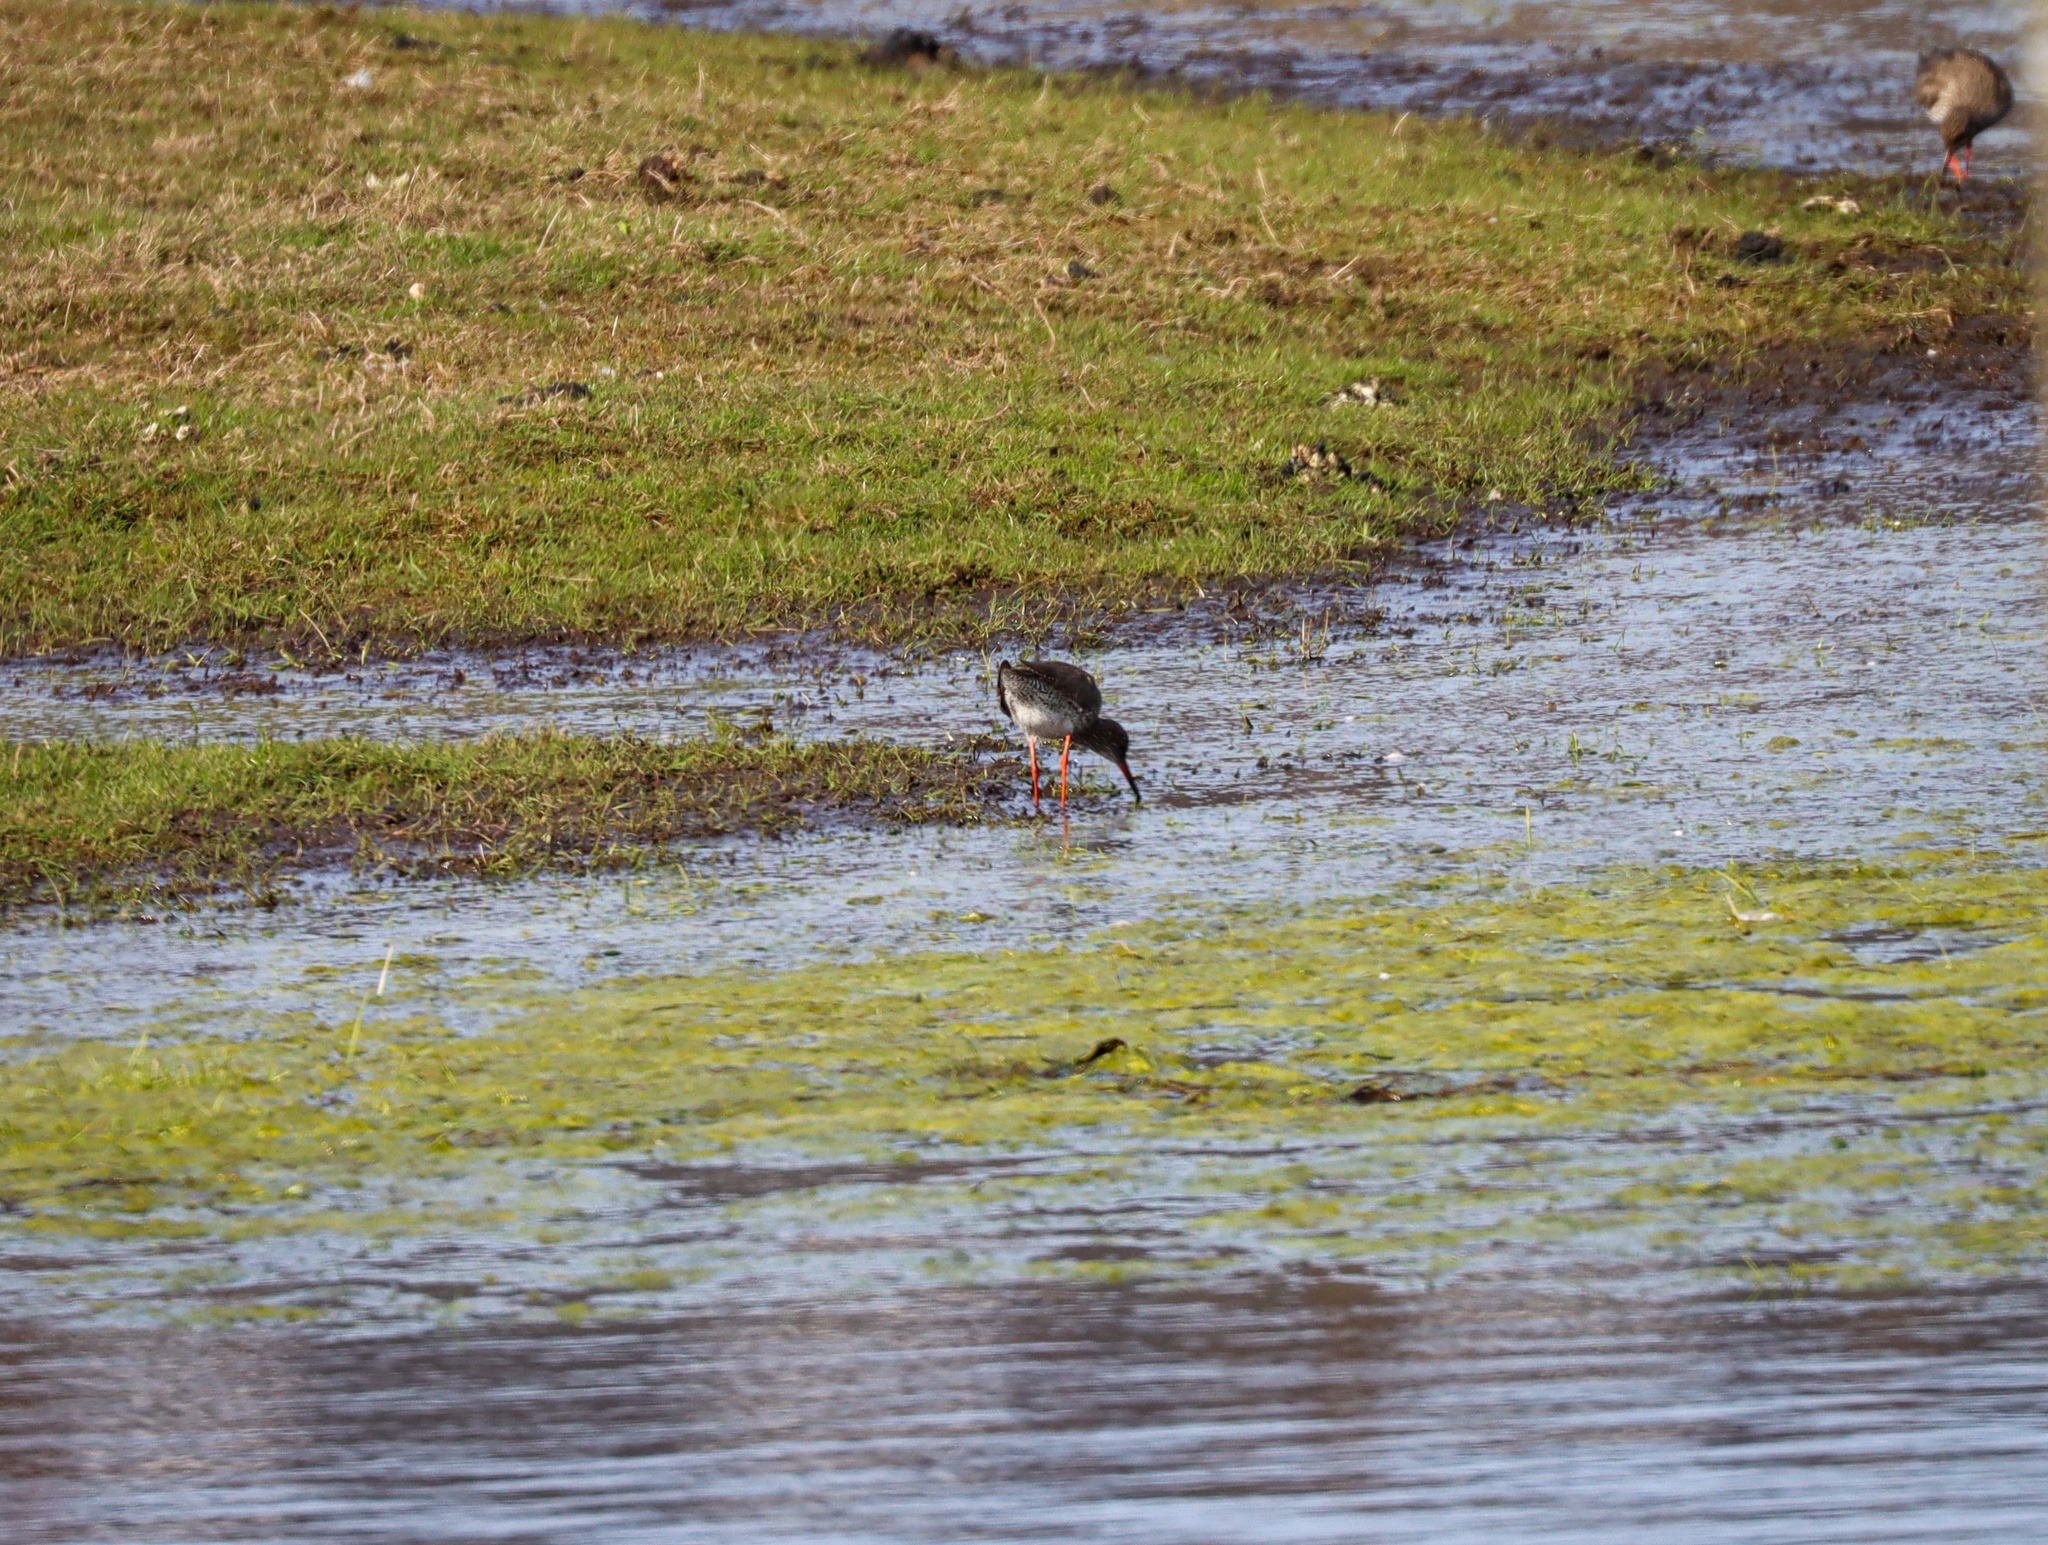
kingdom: Animalia
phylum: Chordata
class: Aves
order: Charadriiformes
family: Scolopacidae
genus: Tringa
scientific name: Tringa totanus
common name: Rødben
